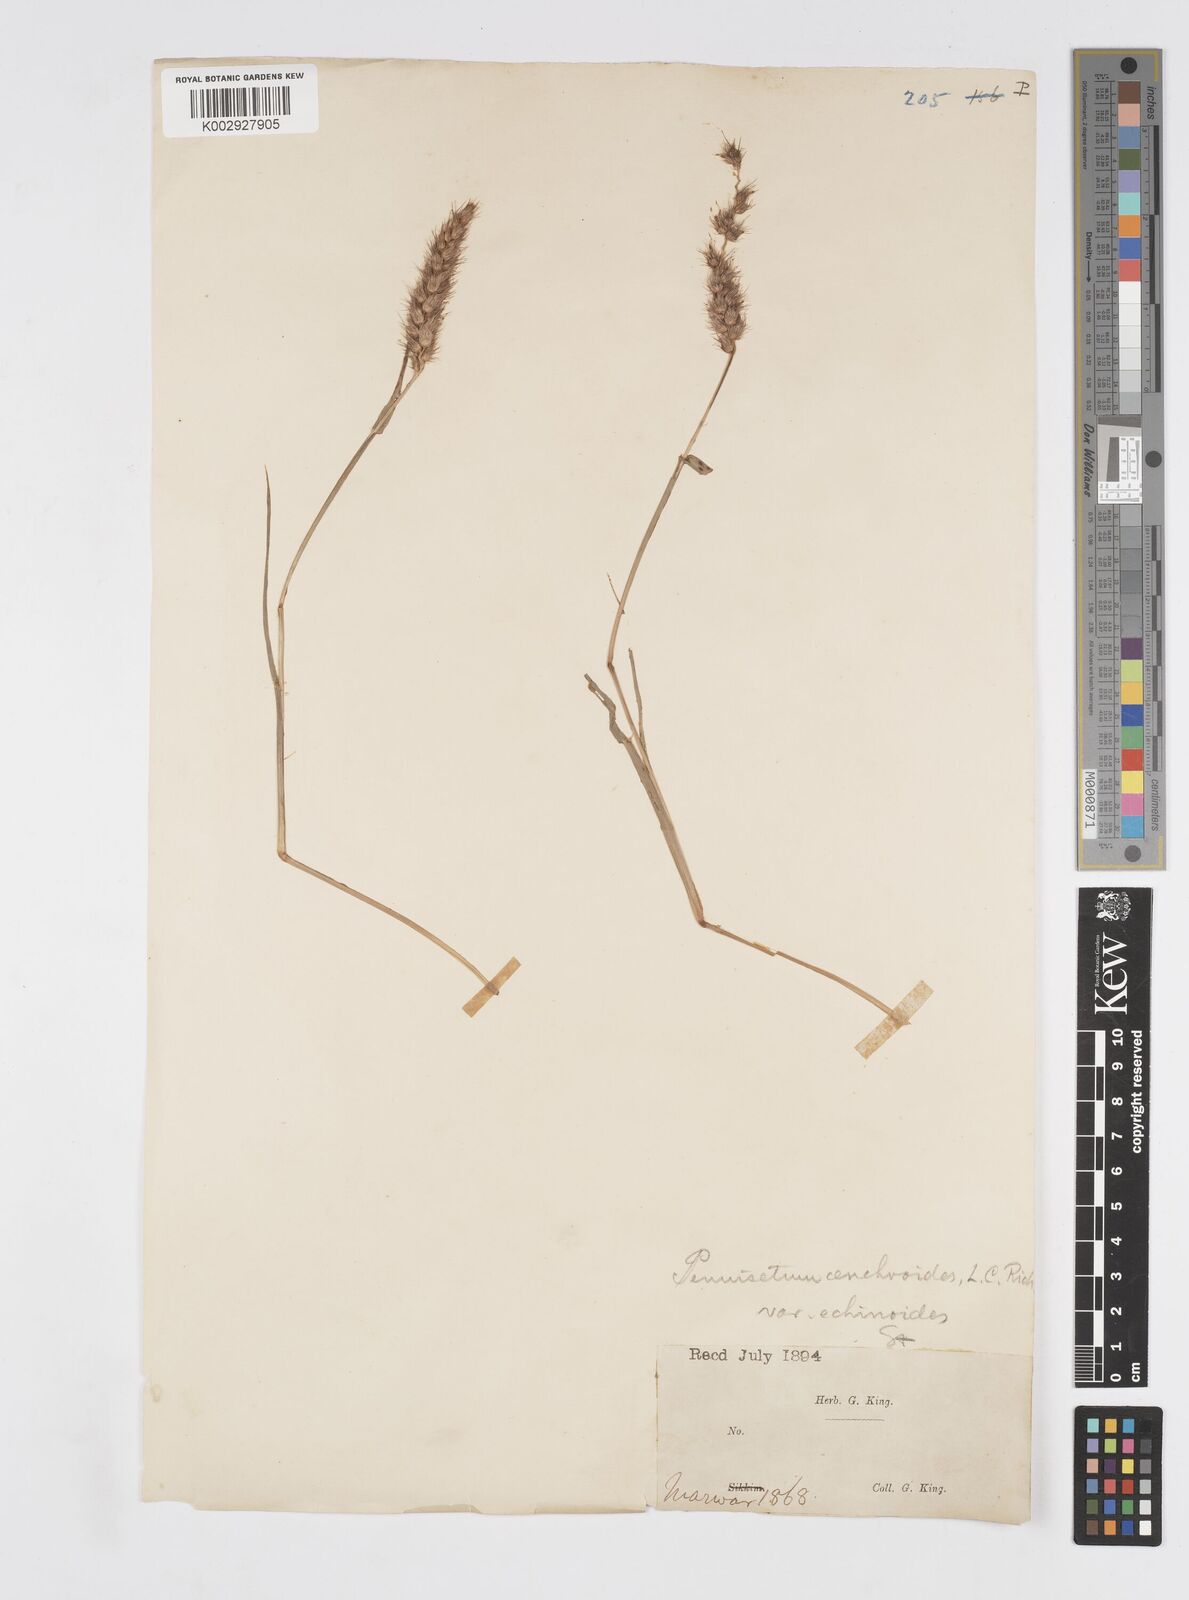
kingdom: Plantae
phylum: Tracheophyta
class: Liliopsida
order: Poales
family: Poaceae
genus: Cenchrus
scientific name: Cenchrus pennisetiformis
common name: Cloncurry
